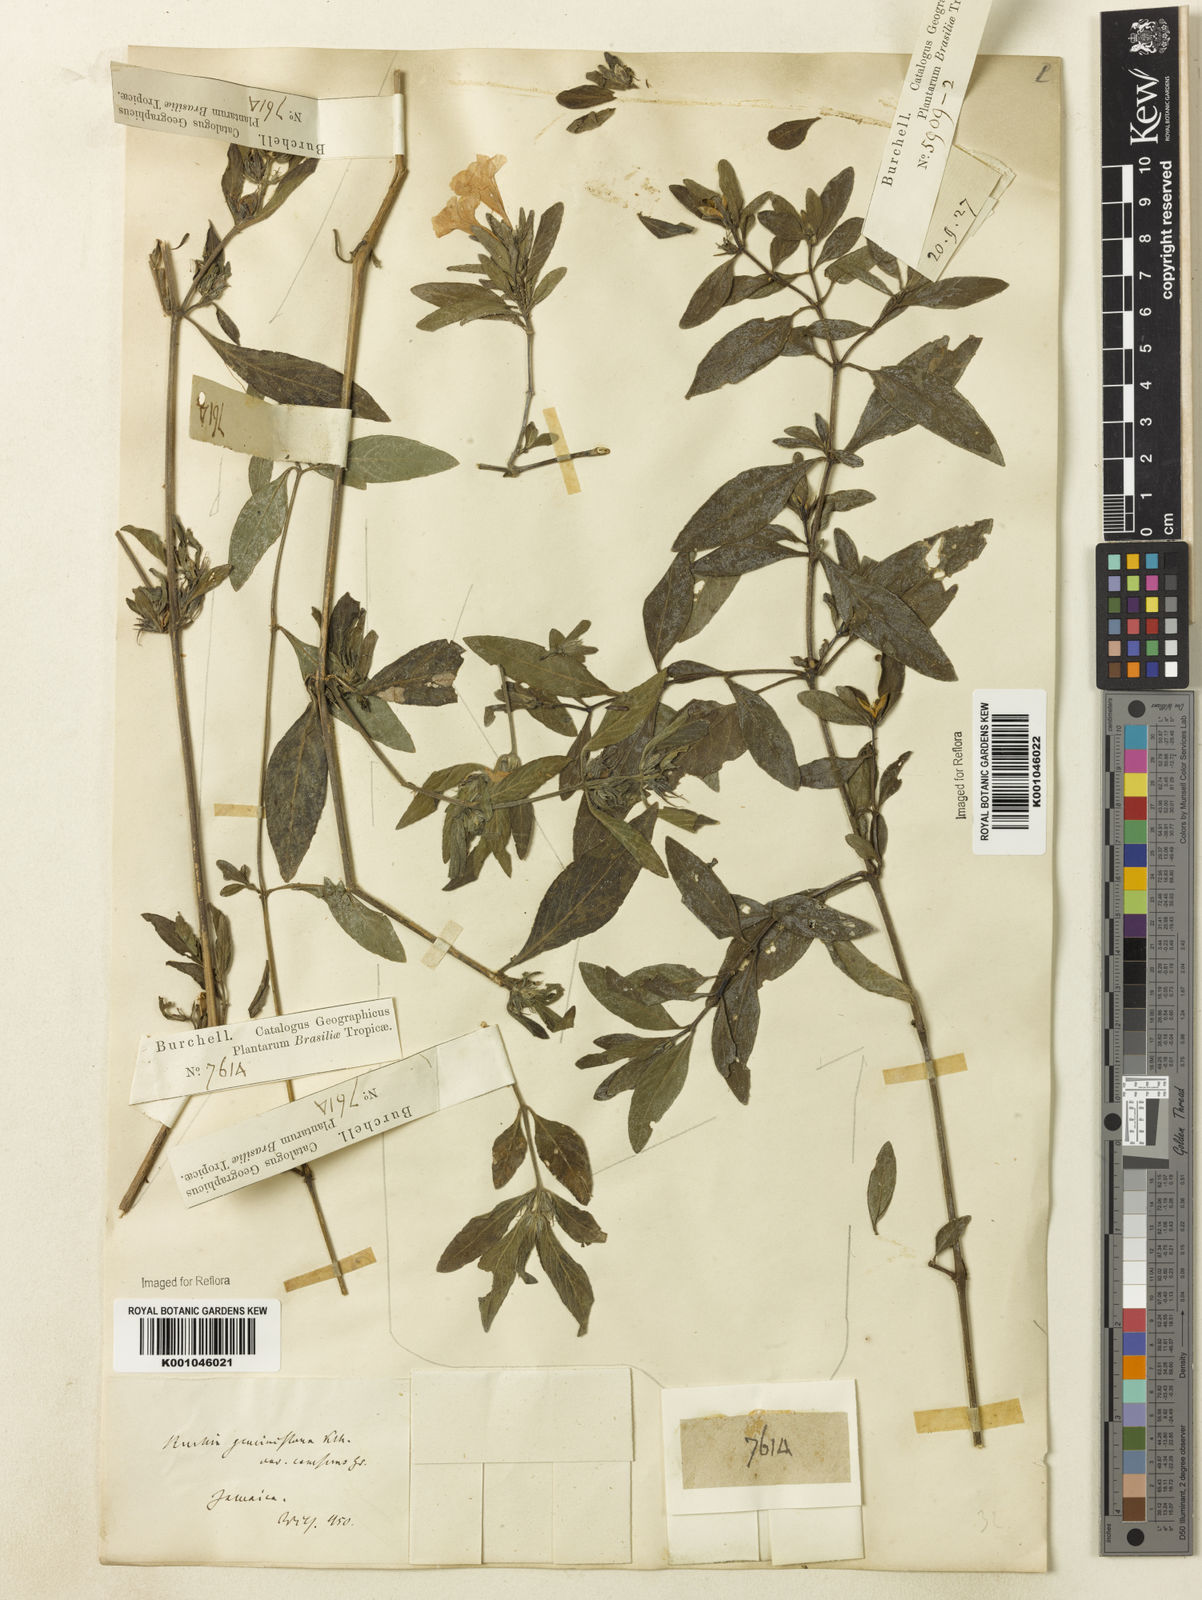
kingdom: Plantae
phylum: Tracheophyta
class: Magnoliopsida
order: Lamiales
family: Acanthaceae
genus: Ruellia
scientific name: Ruellia geminiflora
